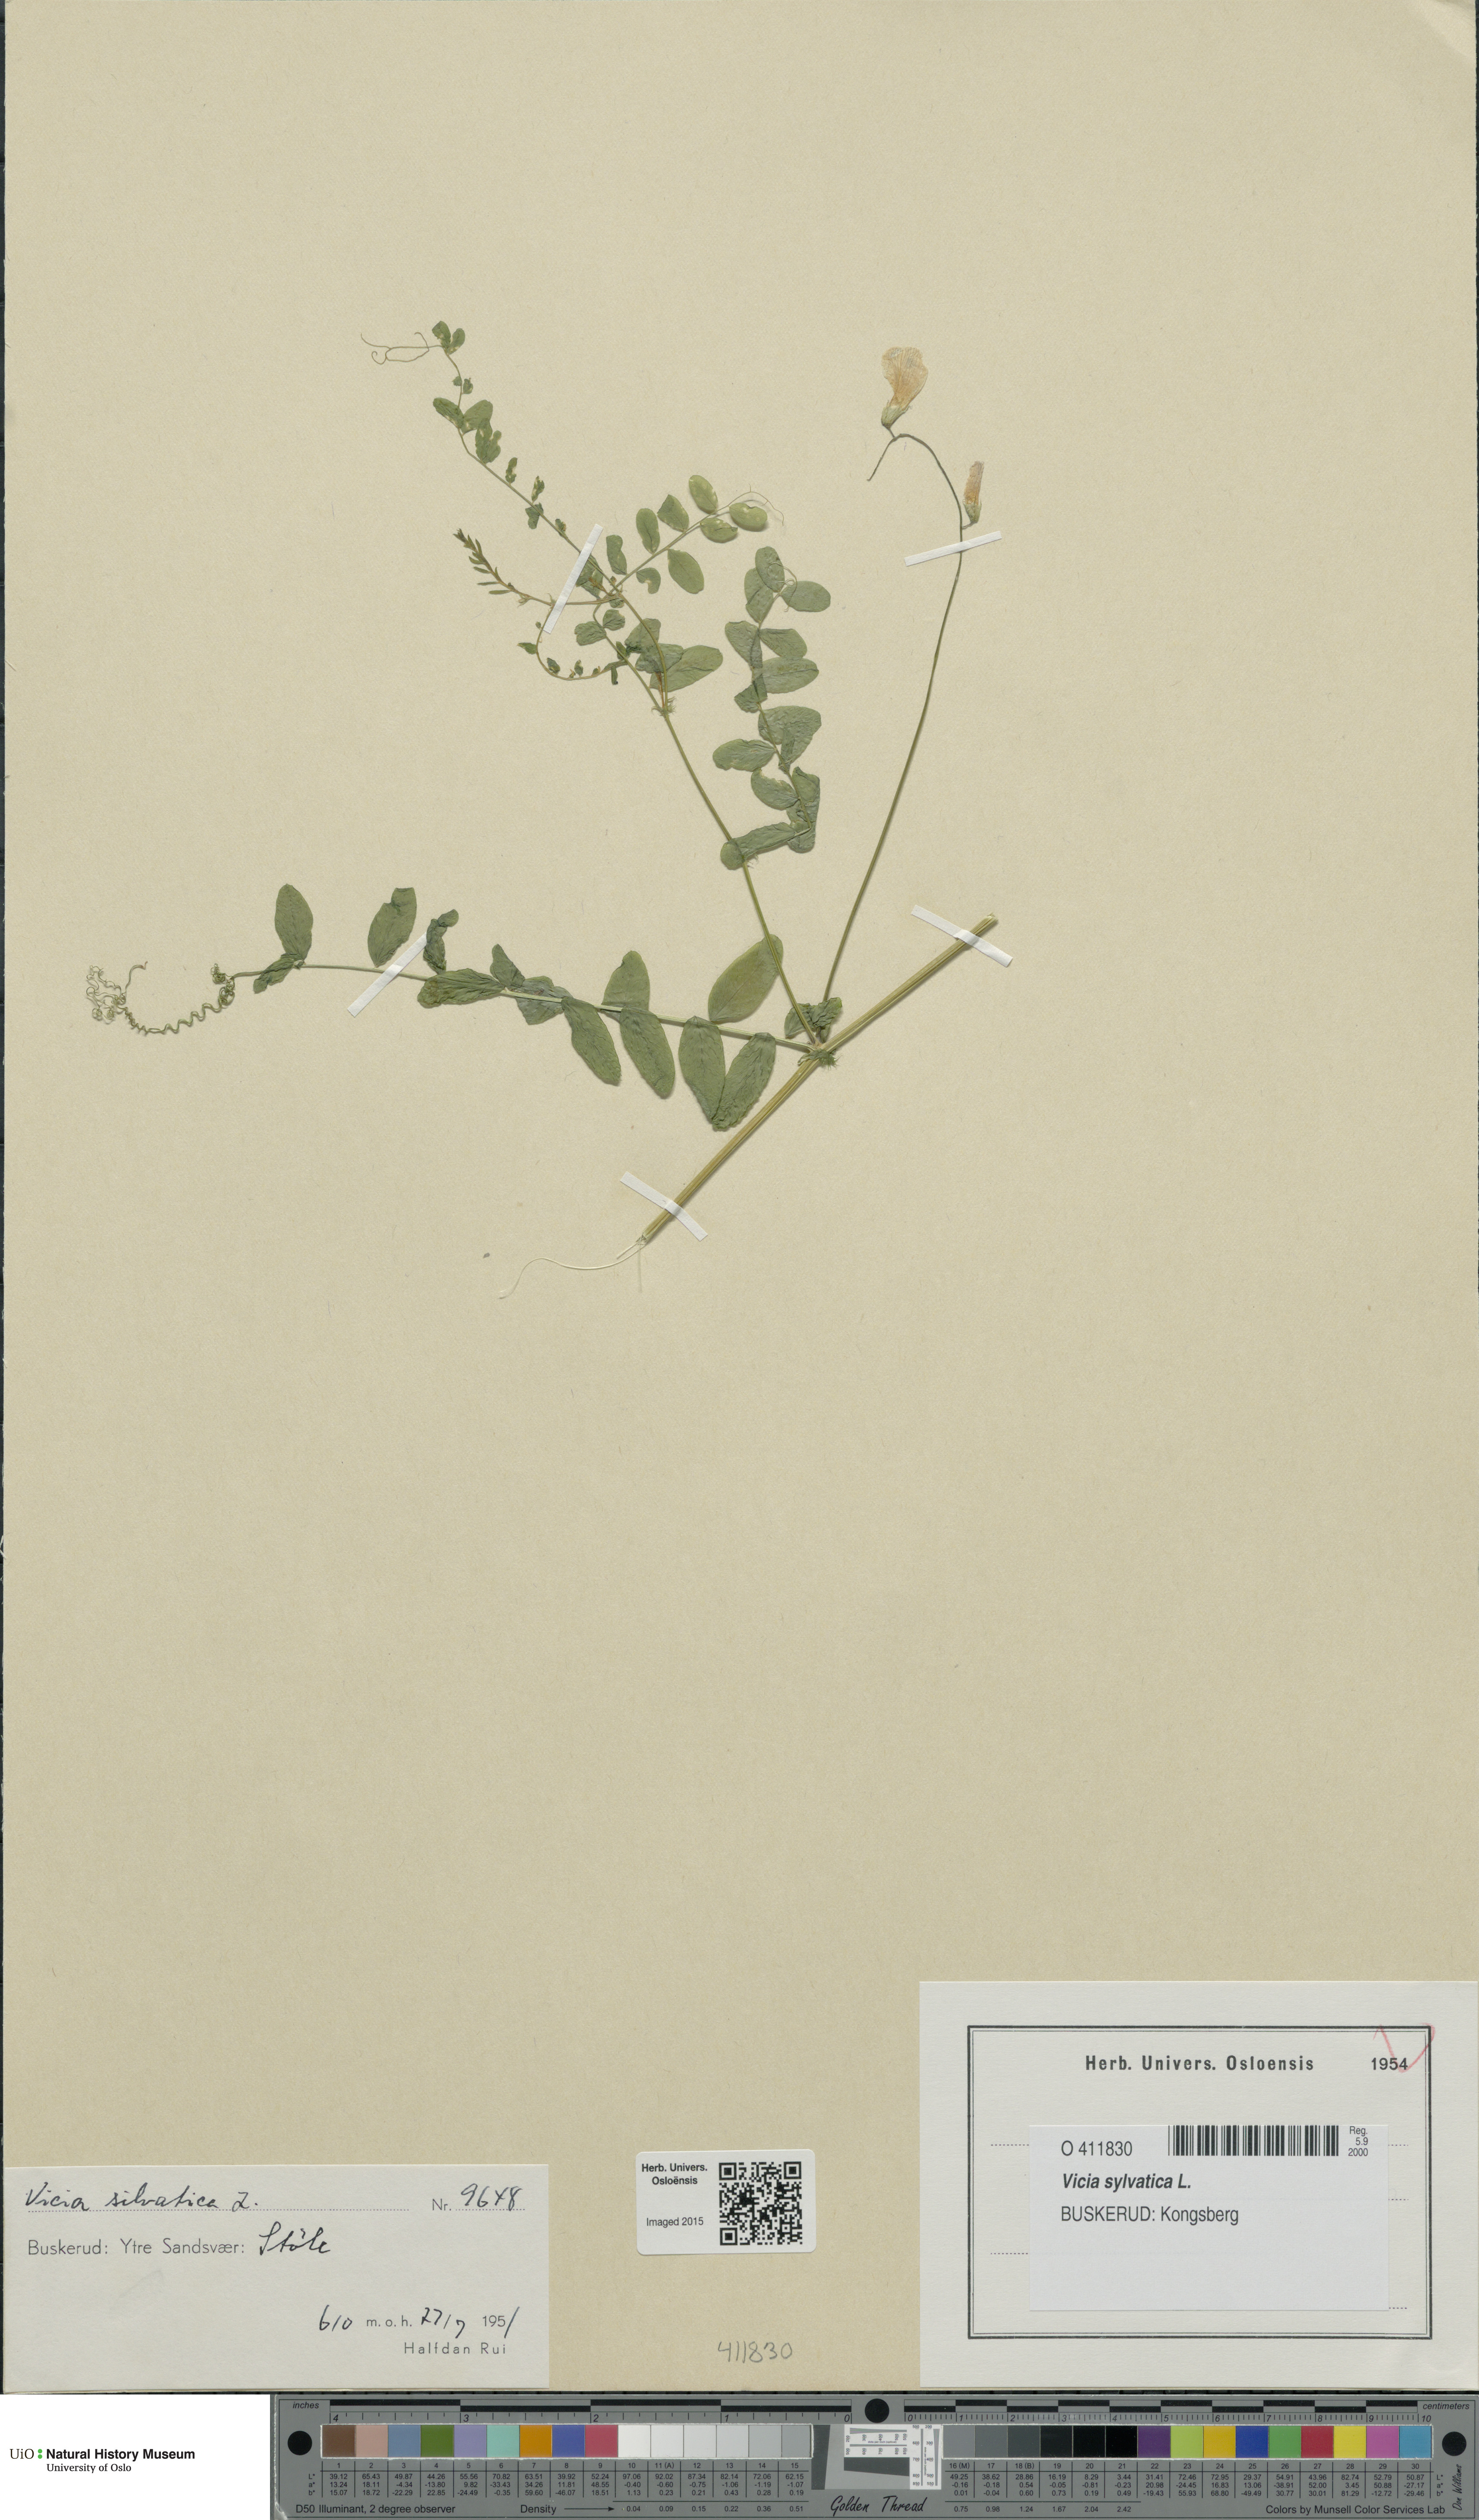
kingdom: Plantae
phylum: Tracheophyta
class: Magnoliopsida
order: Fabales
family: Fabaceae
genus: Vicia
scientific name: Vicia sylvatica
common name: Wood vetch
